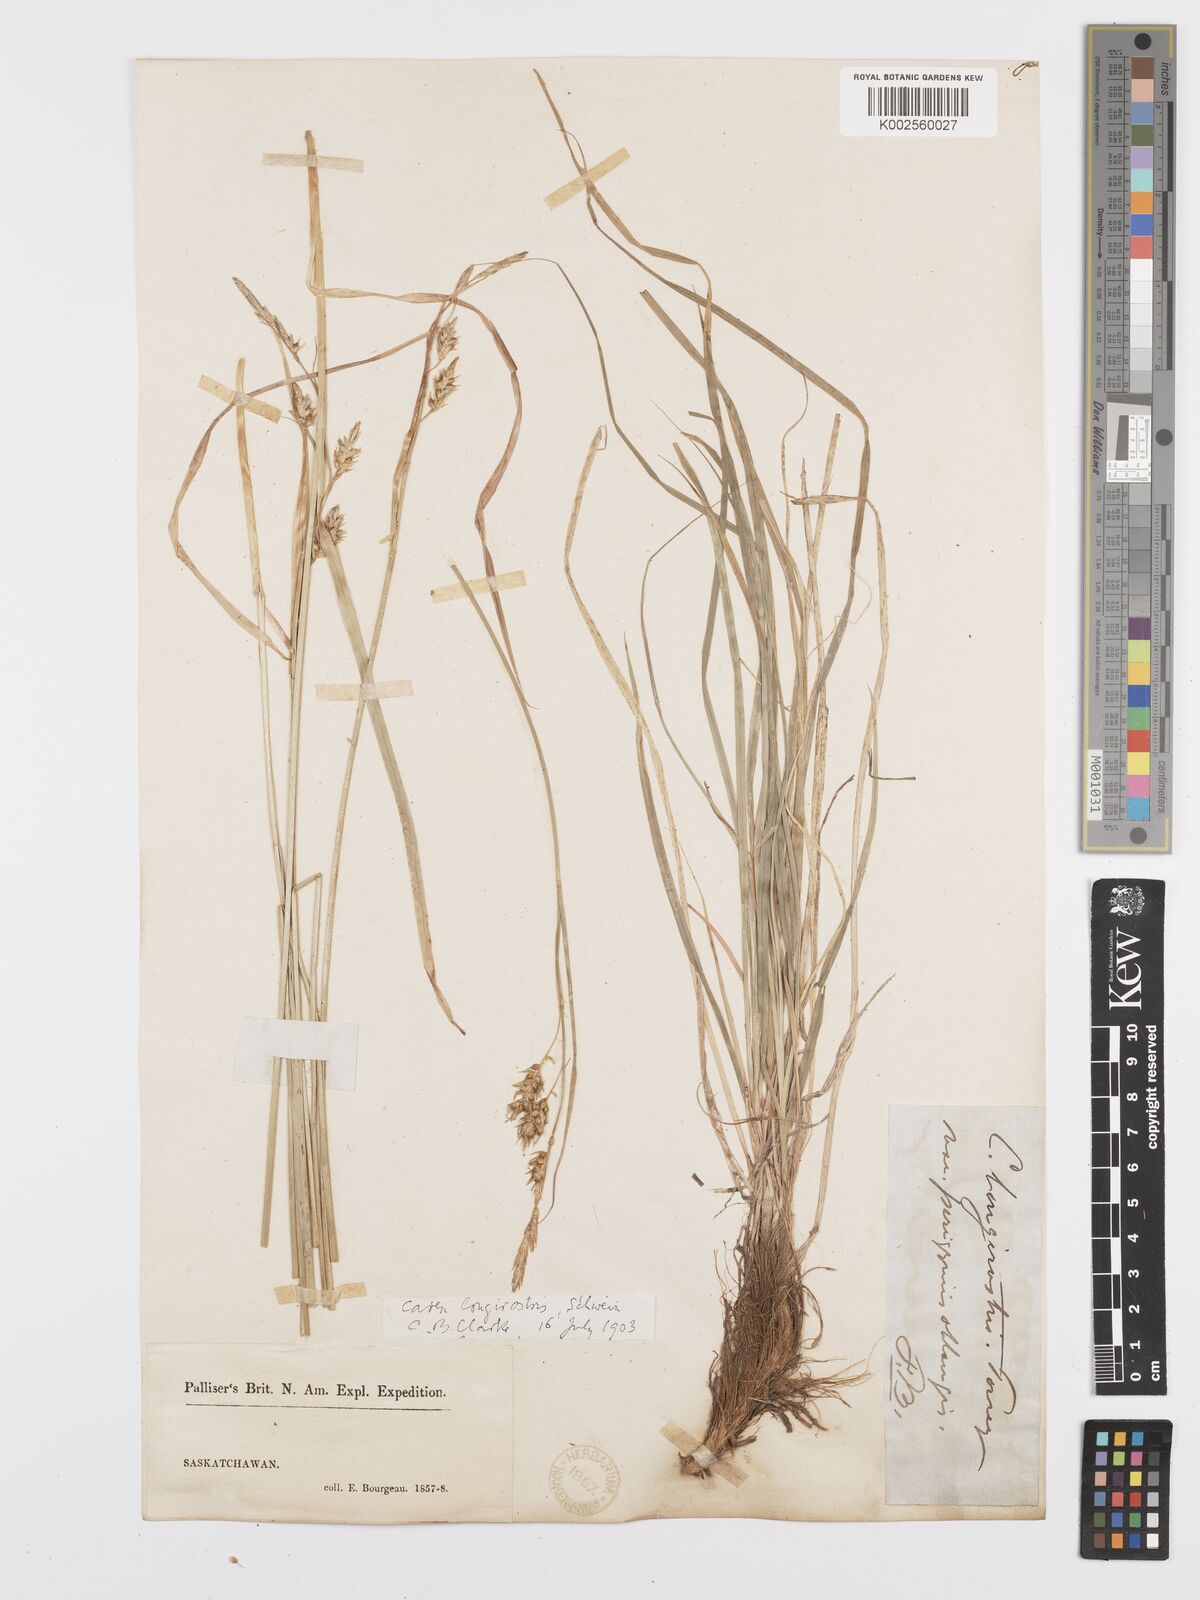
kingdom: Plantae
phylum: Tracheophyta
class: Liliopsida
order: Poales
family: Cyperaceae
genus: Carex
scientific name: Carex sprengelii
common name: Long-beaked sedge
